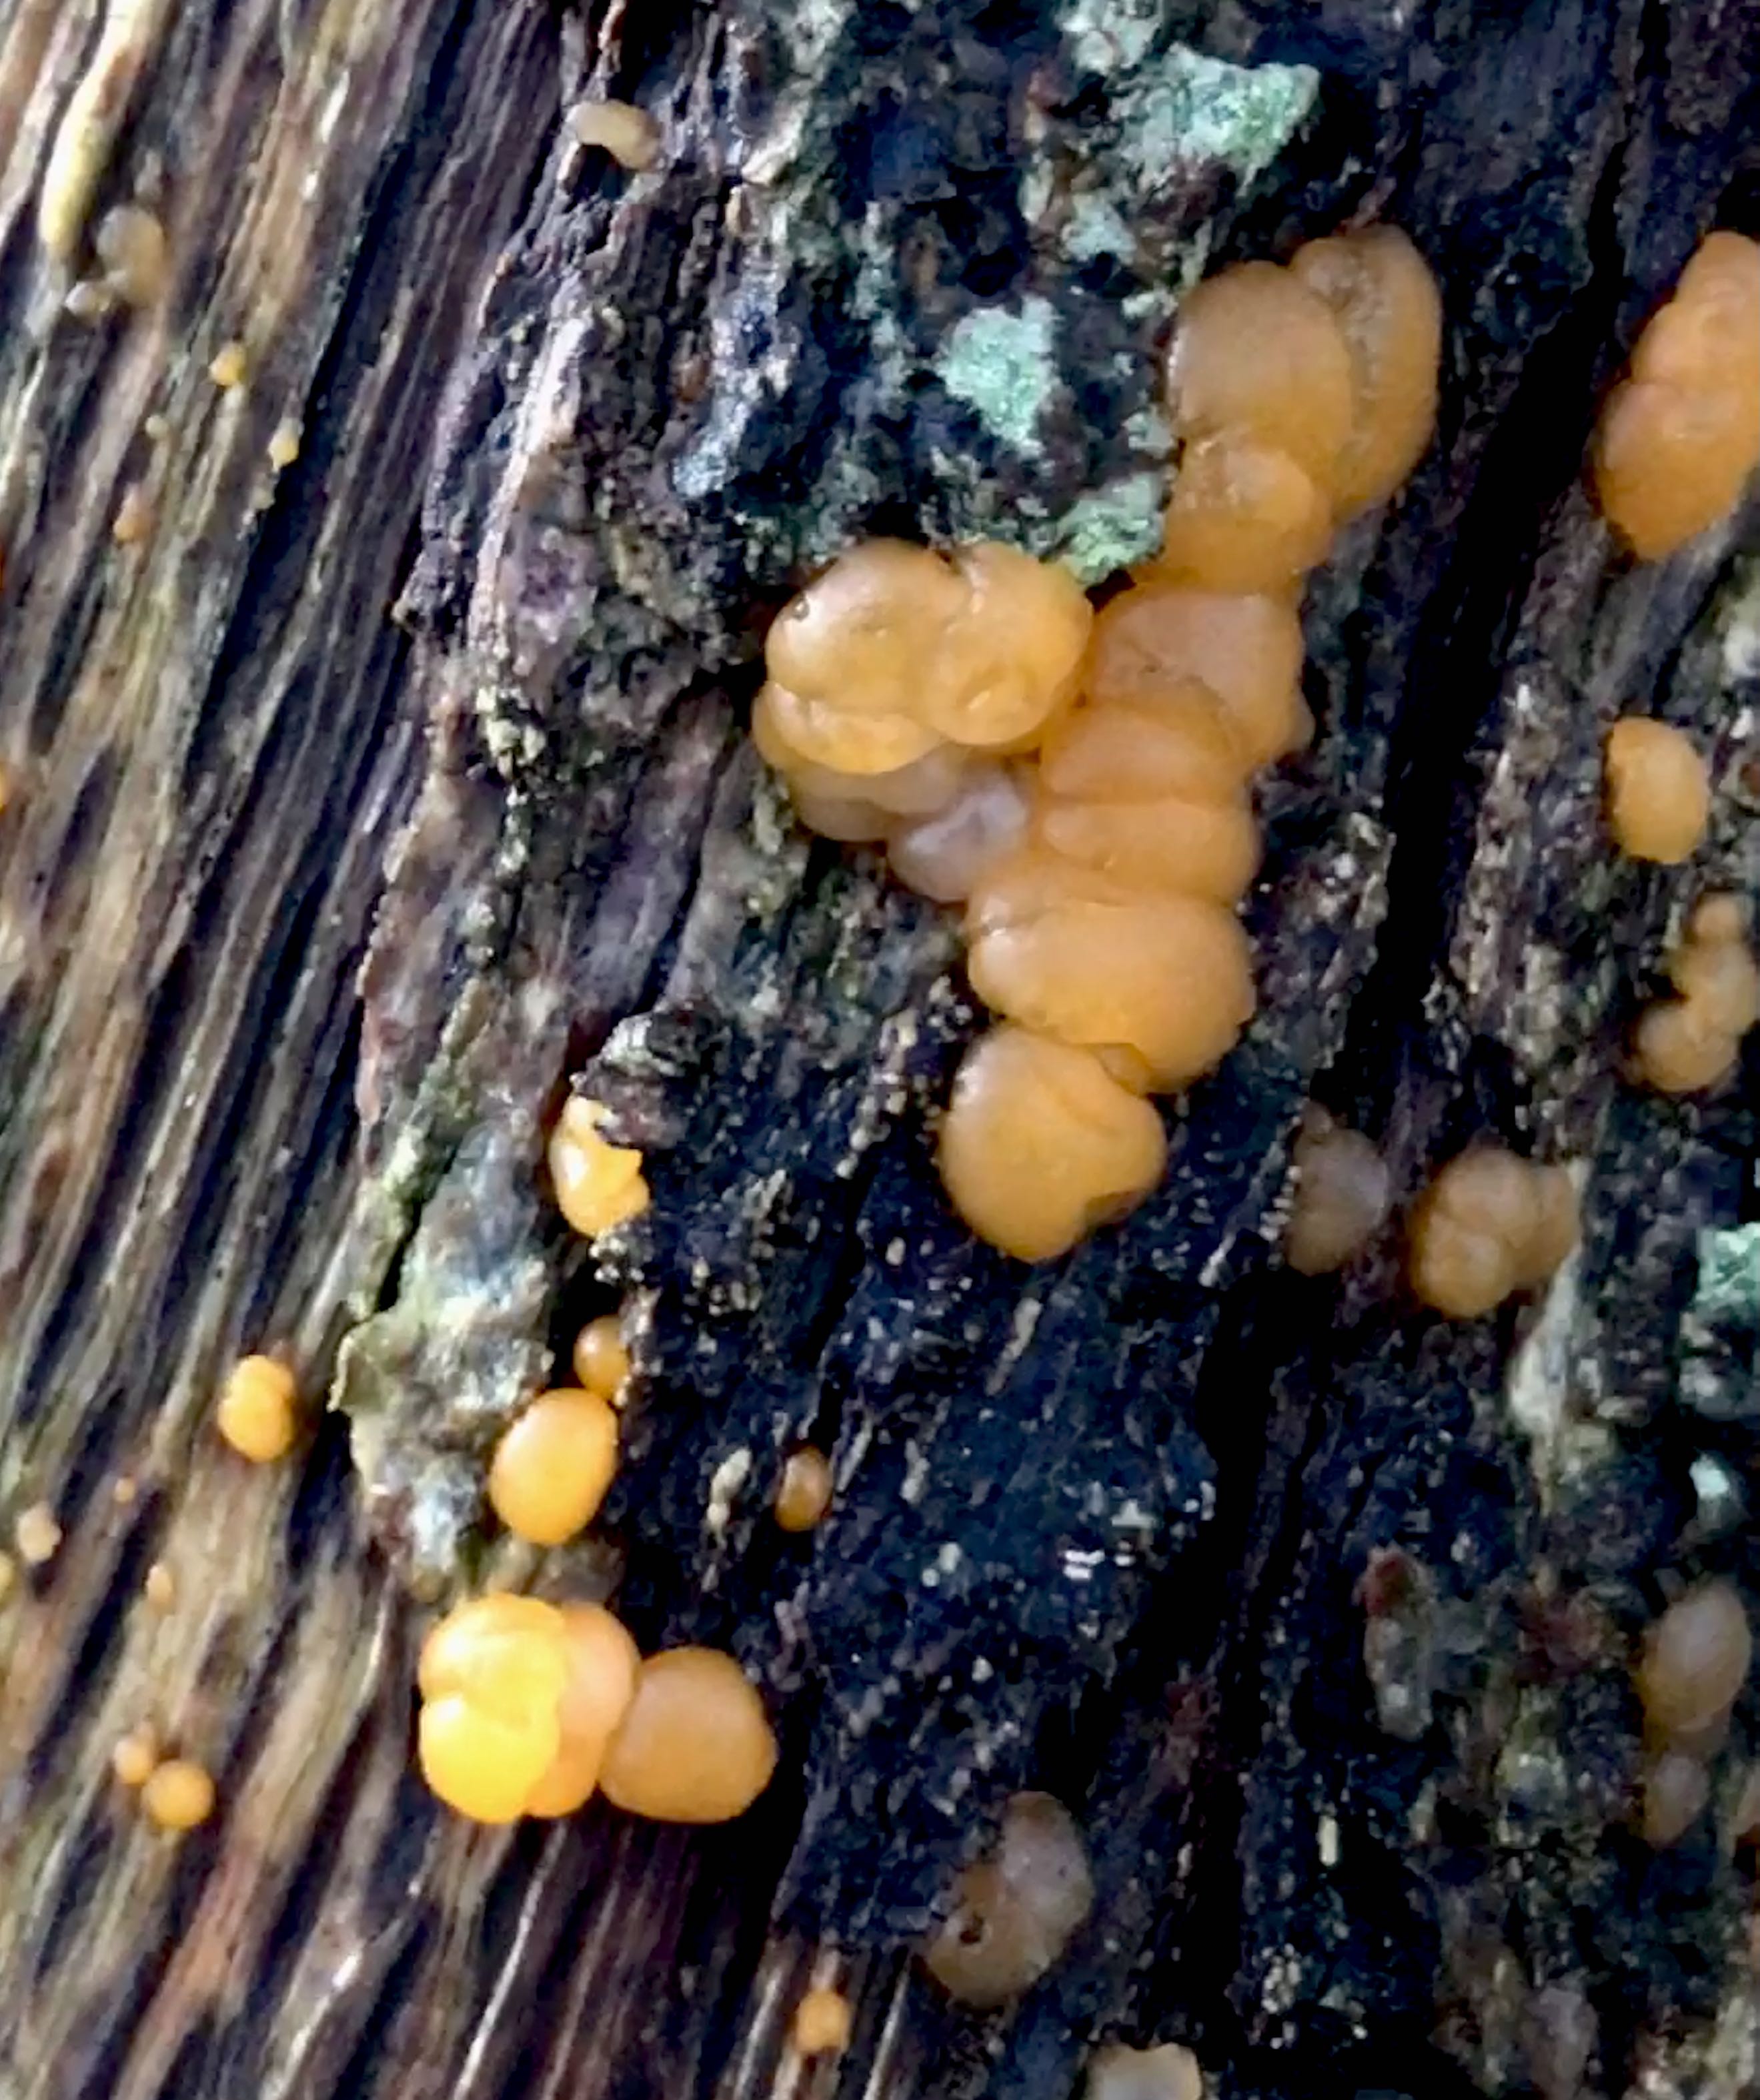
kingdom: Fungi
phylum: Basidiomycota
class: Dacrymycetes
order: Dacrymycetales
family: Dacrymycetaceae
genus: Dacrymyces
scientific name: Dacrymyces stillatus
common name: almindelig tåresvamp
